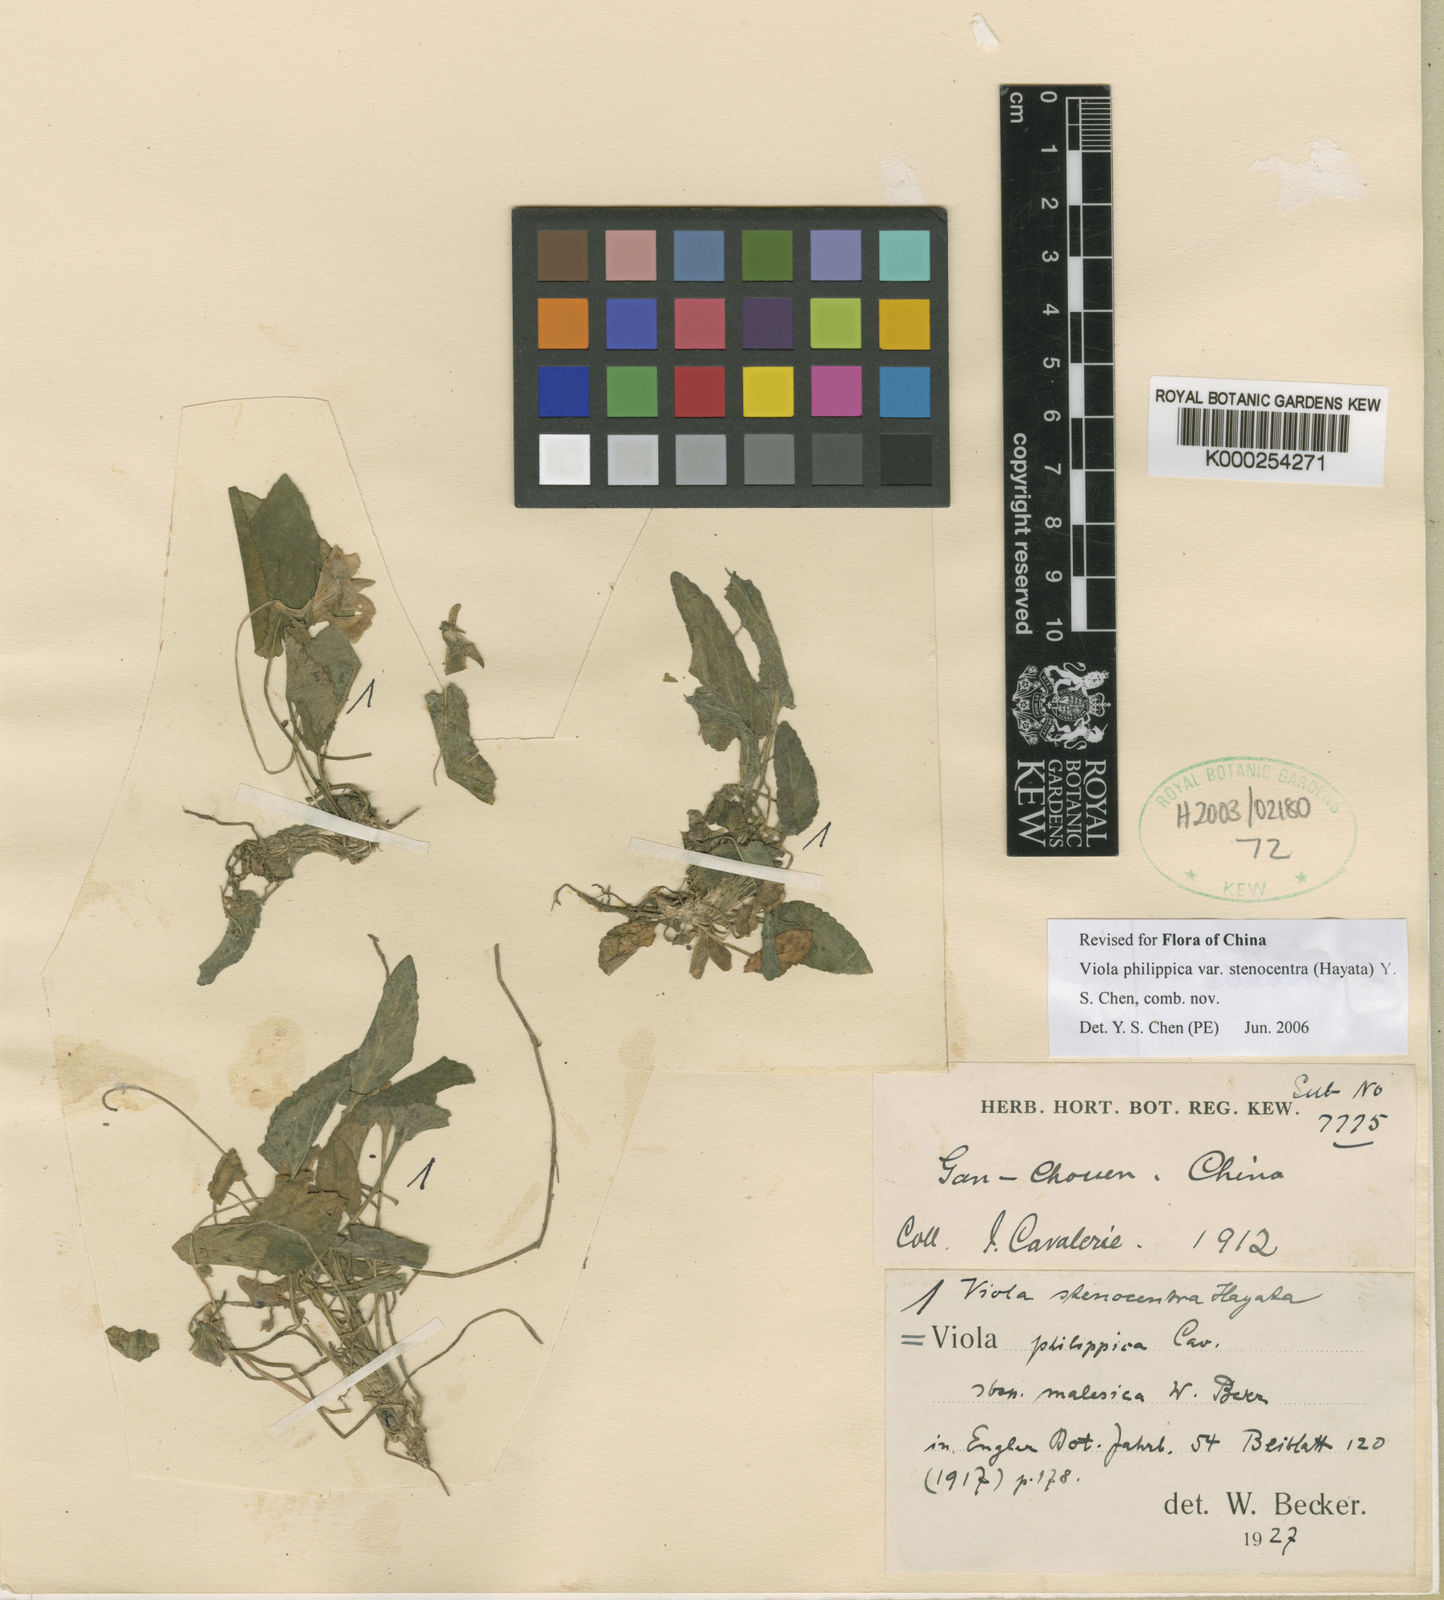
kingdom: Plantae
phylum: Tracheophyta
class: Magnoliopsida
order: Malpighiales
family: Violaceae
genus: Viola
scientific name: Viola serrula
